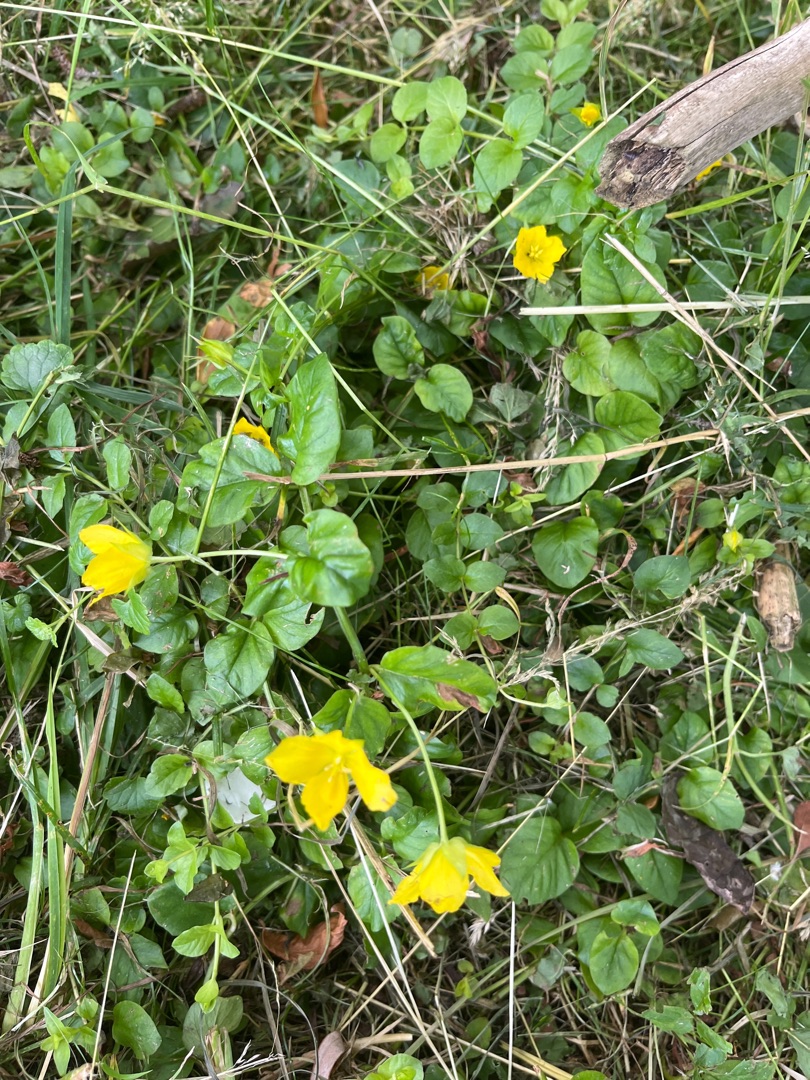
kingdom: Plantae
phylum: Tracheophyta
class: Magnoliopsida
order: Ericales
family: Primulaceae
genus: Lysimachia
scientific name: Lysimachia nummularia
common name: Pengebladet fredløs
